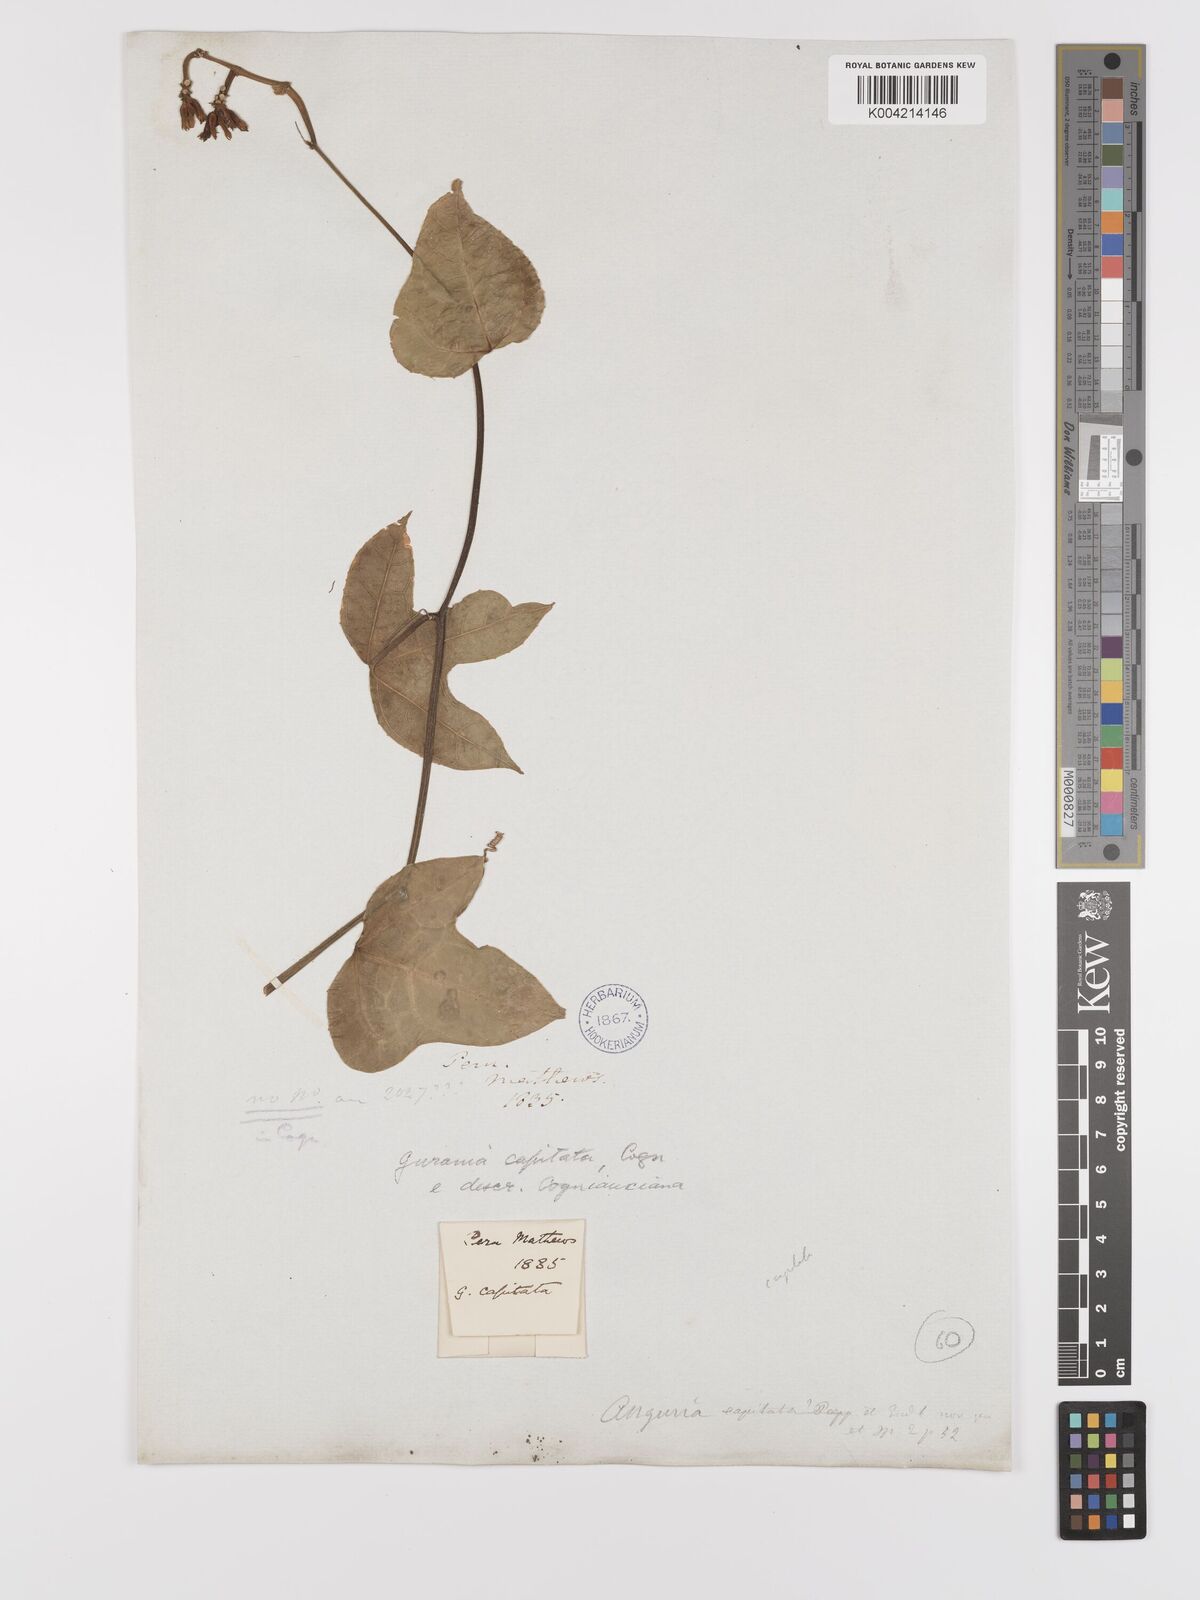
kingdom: Plantae
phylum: Tracheophyta
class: Magnoliopsida
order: Cucurbitales
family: Cucurbitaceae
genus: Gurania
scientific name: Gurania capitata
